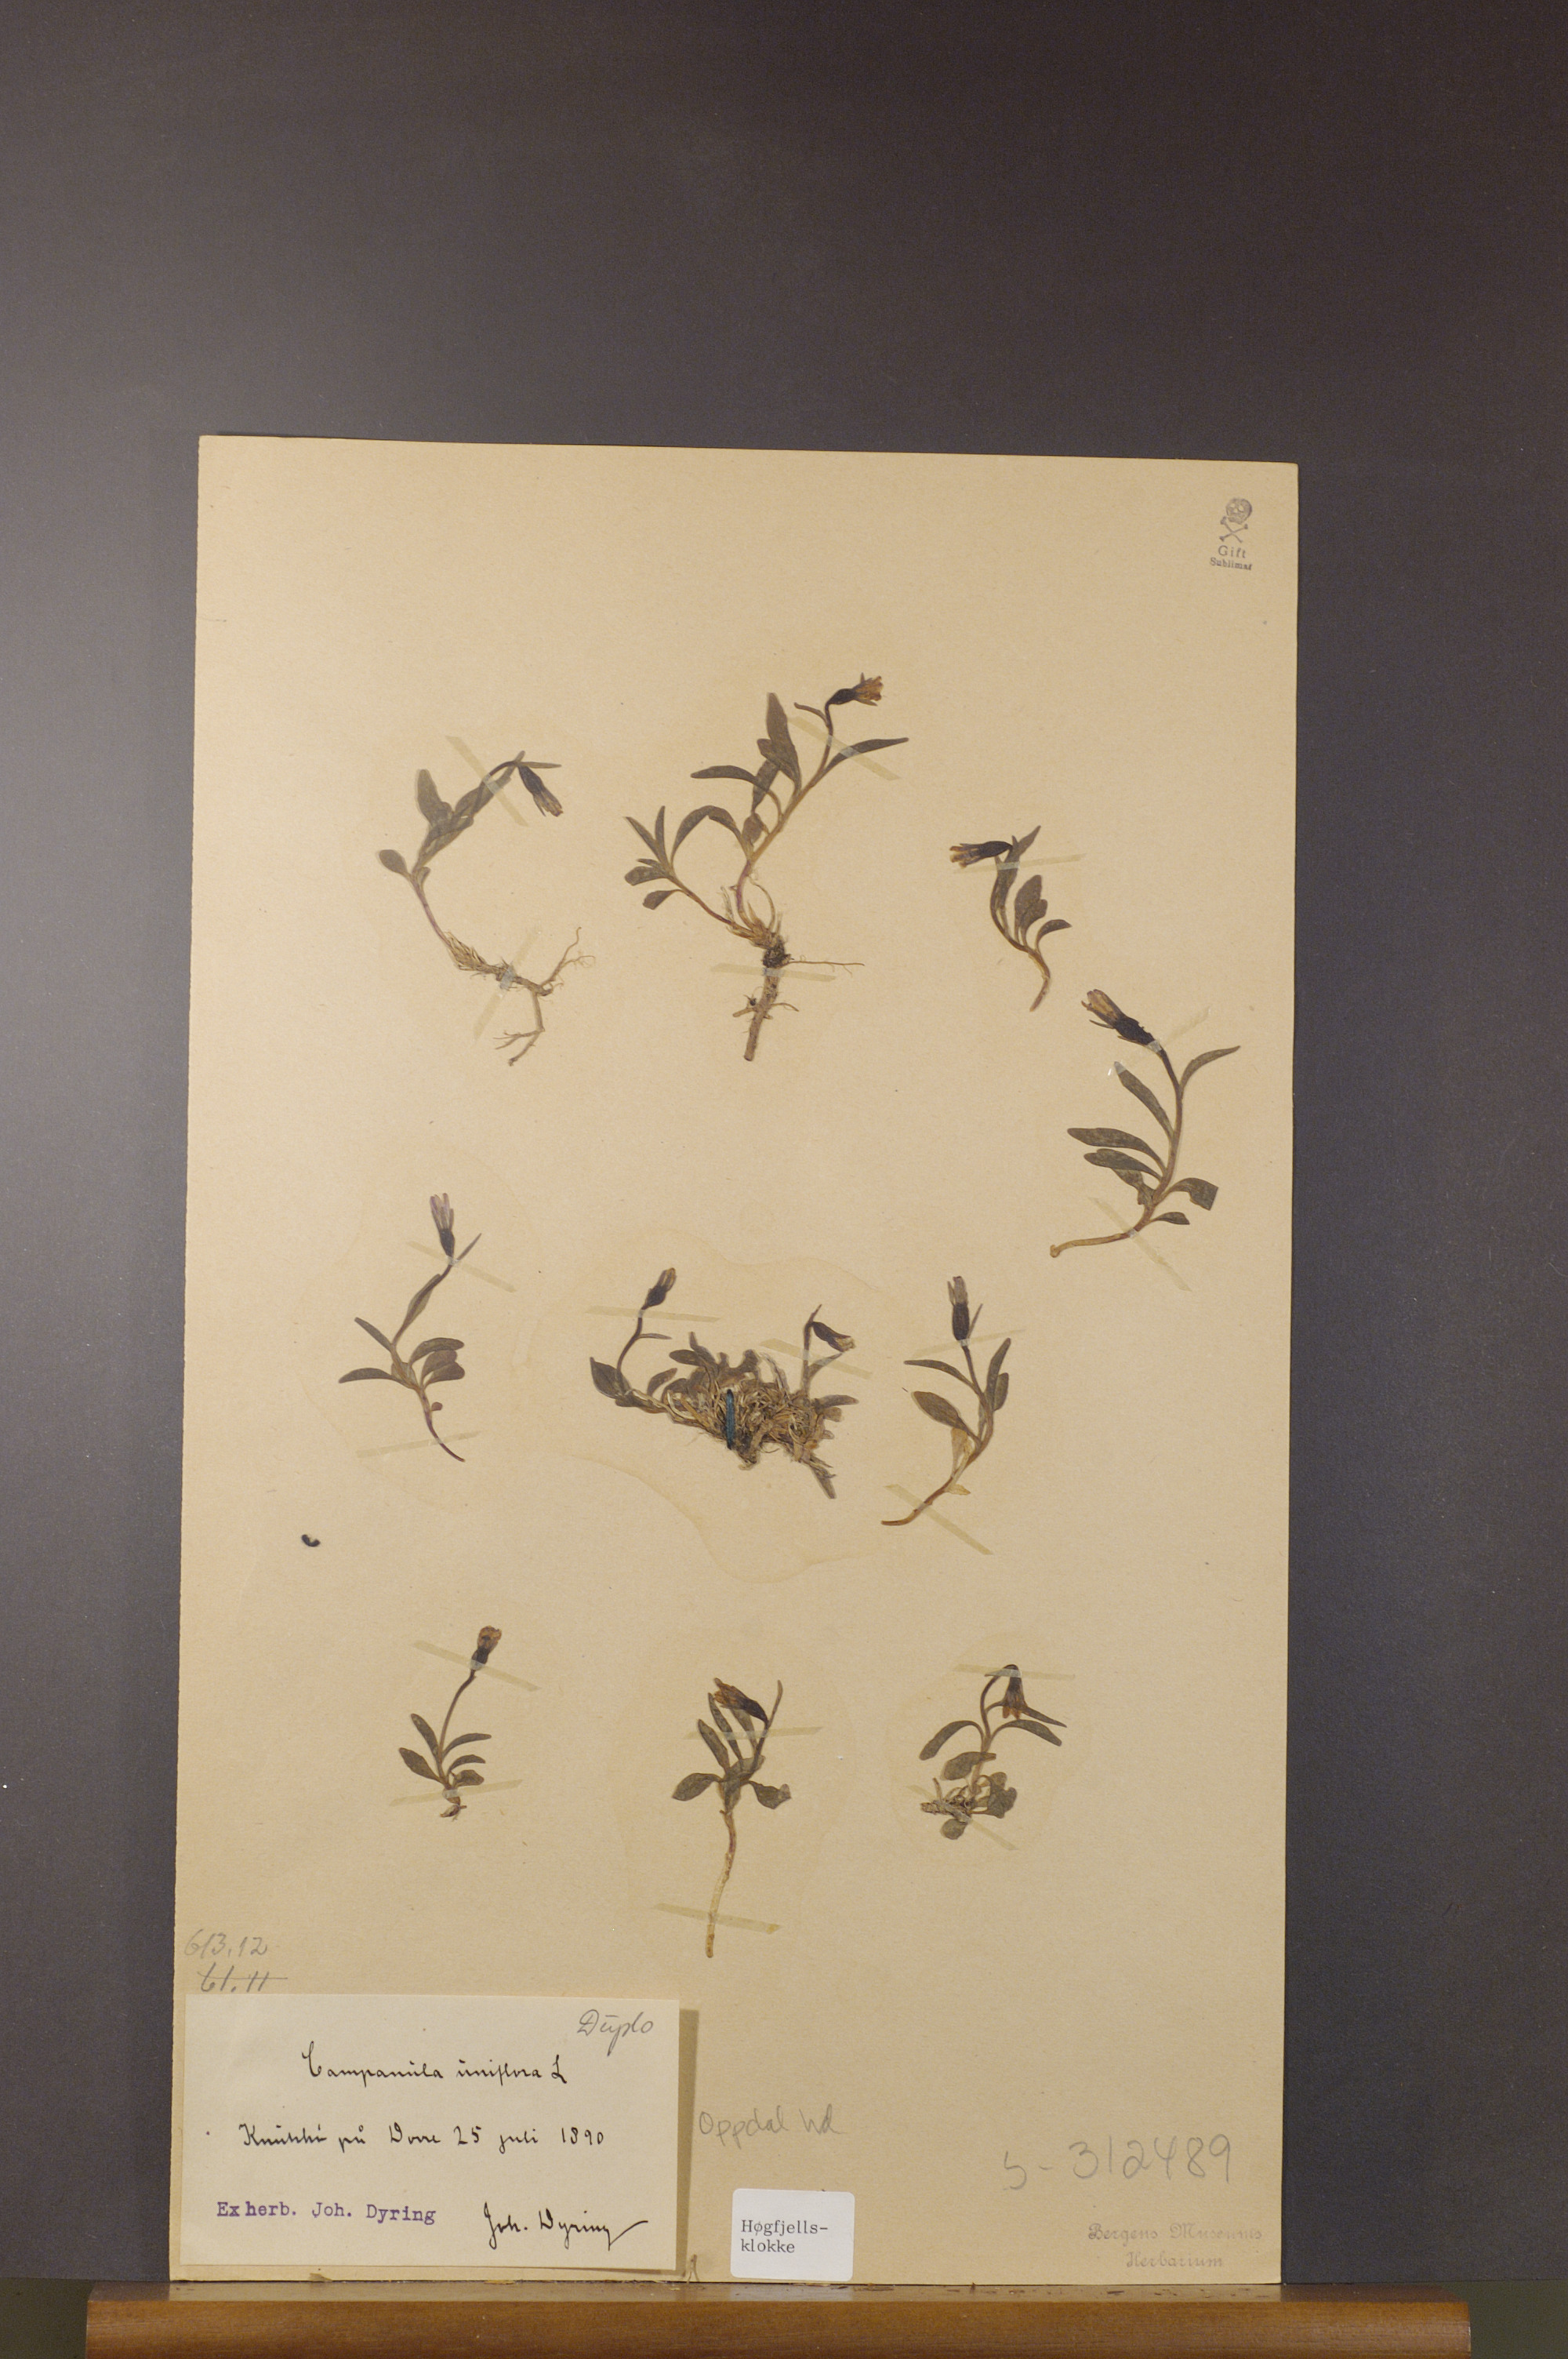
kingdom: Plantae
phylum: Tracheophyta
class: Magnoliopsida
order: Asterales
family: Campanulaceae
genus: Melanocalyx
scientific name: Melanocalyx uniflora
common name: Alpine harebell
